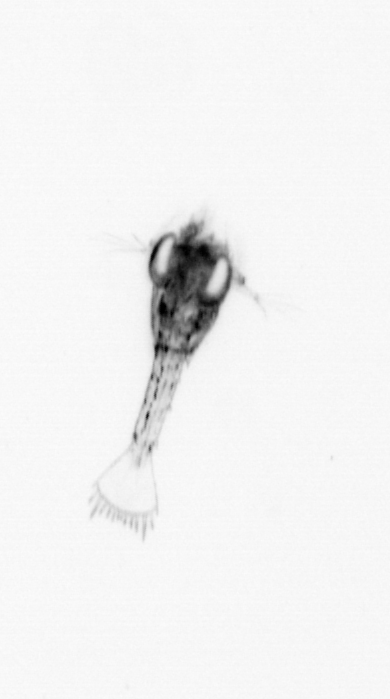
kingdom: Animalia
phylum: Arthropoda
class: Malacostraca
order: Decapoda
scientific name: Decapoda
